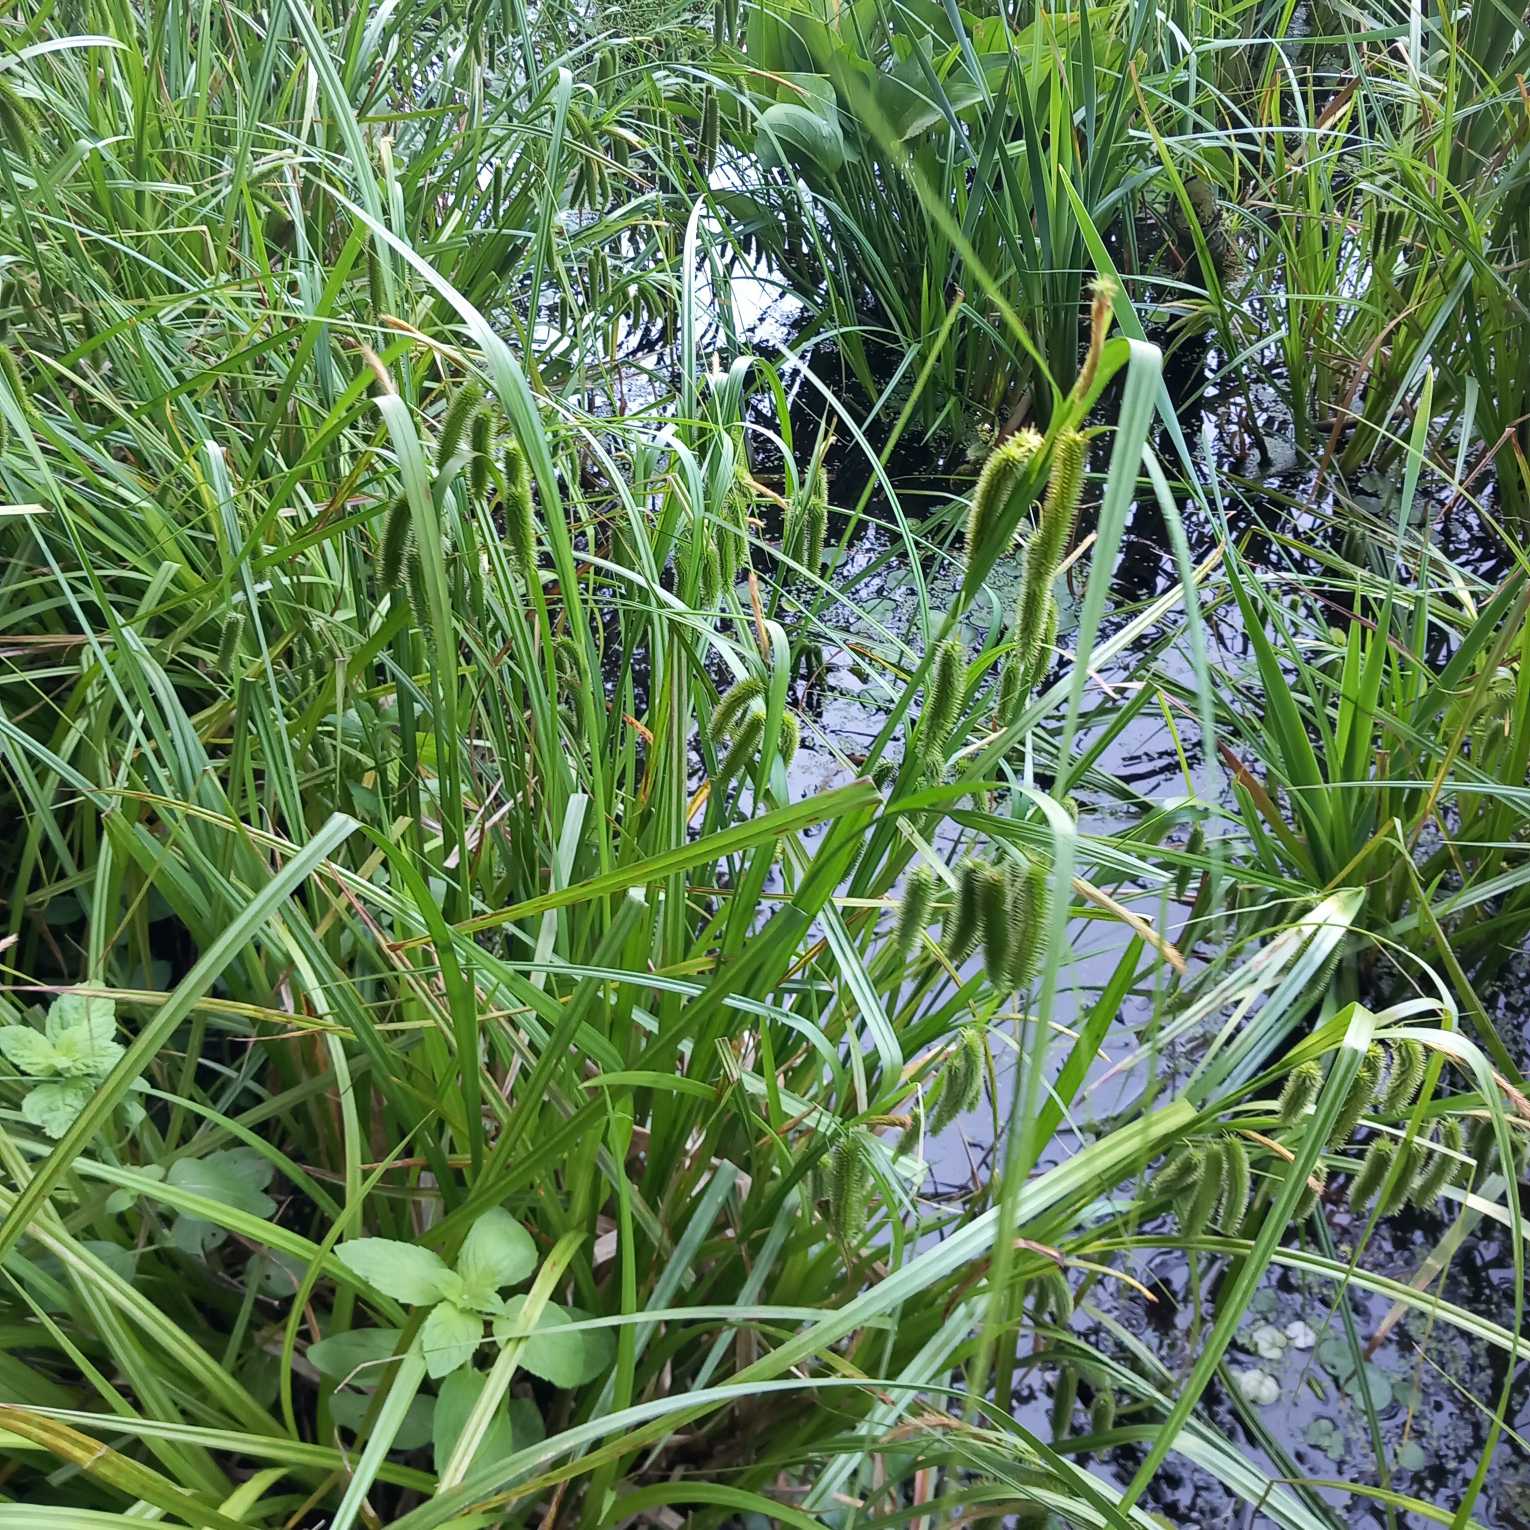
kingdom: Plantae
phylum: Tracheophyta
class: Liliopsida
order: Poales
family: Cyperaceae
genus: Carex
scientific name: Carex pseudocyperus
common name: Knippe-star
